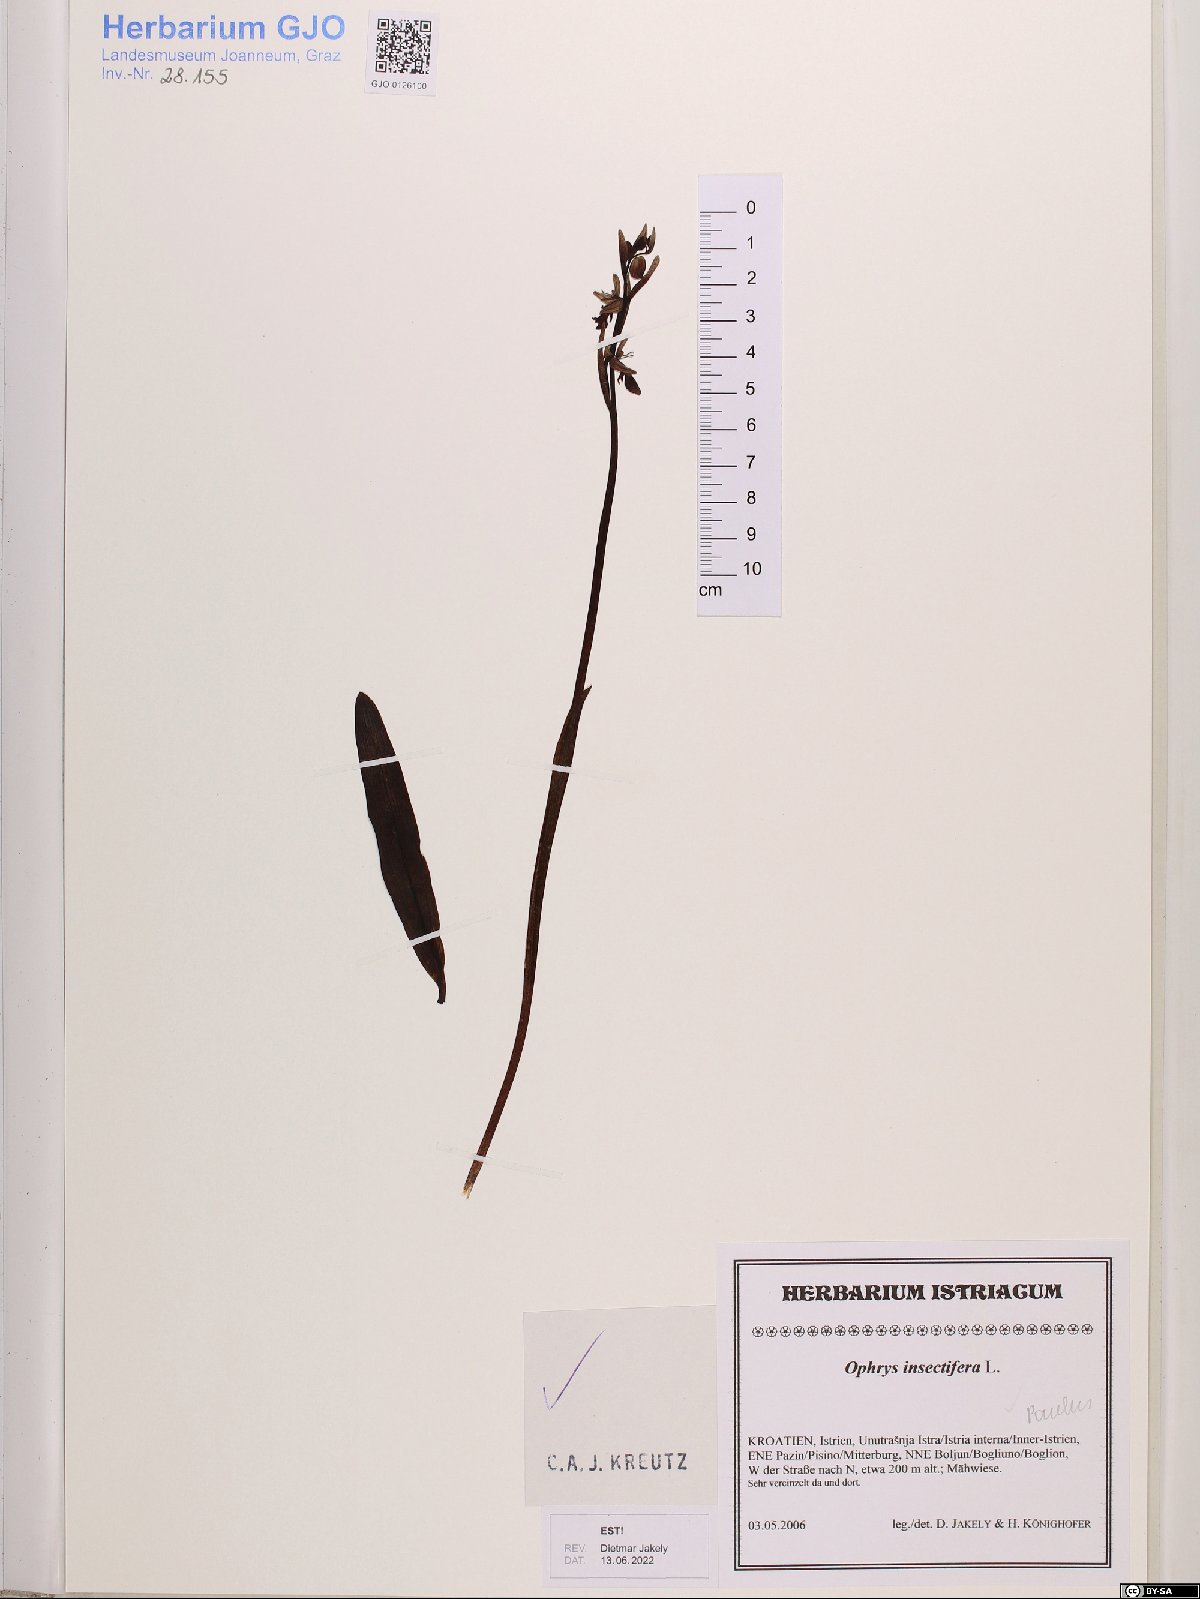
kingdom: Plantae
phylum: Tracheophyta
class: Liliopsida
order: Asparagales
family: Orchidaceae
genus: Ophrys
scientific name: Ophrys insectifera
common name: Fly orchid
